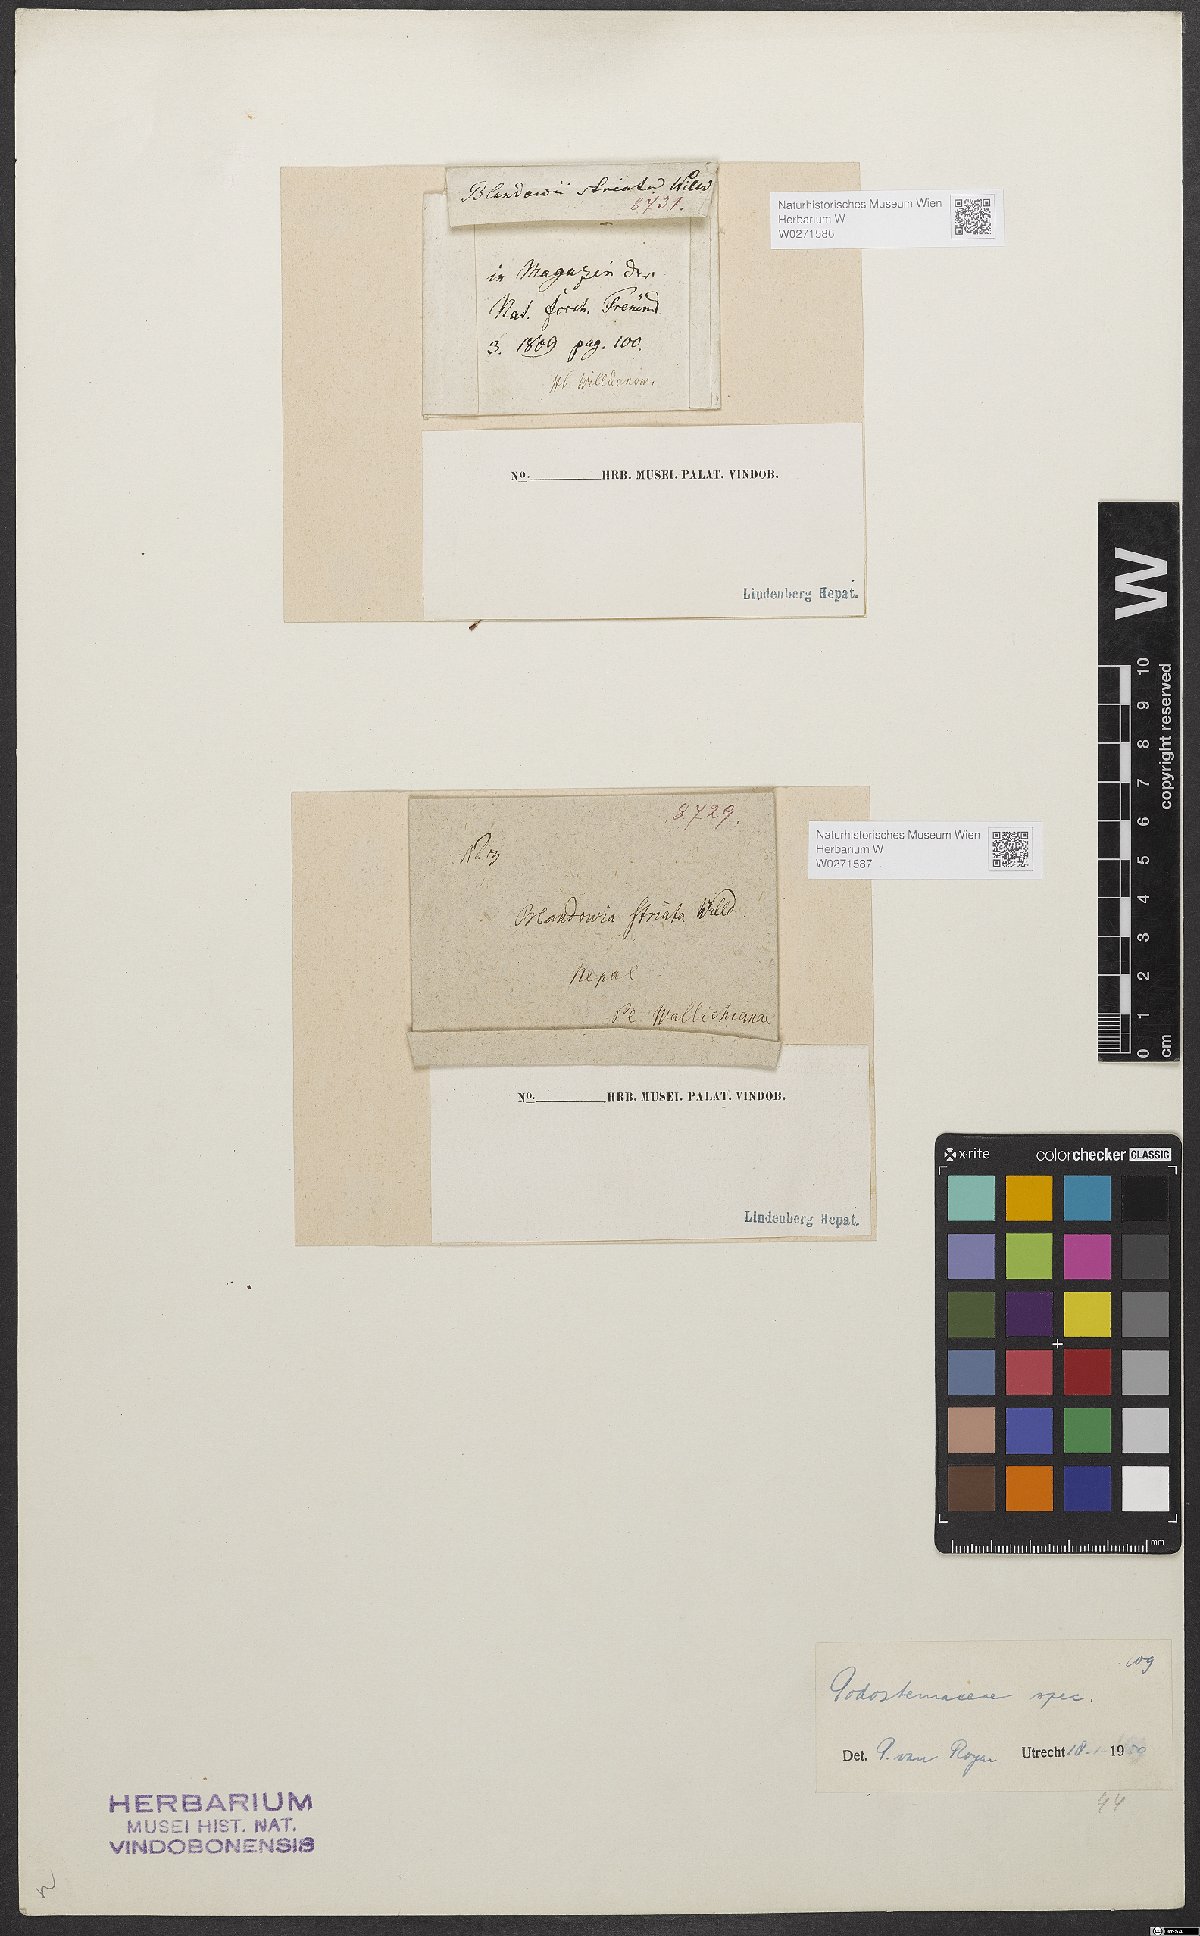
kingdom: Plantae
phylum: Tracheophyta
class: Magnoliopsida
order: Malpighiales
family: Podostemaceae
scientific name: Podostemaceae
